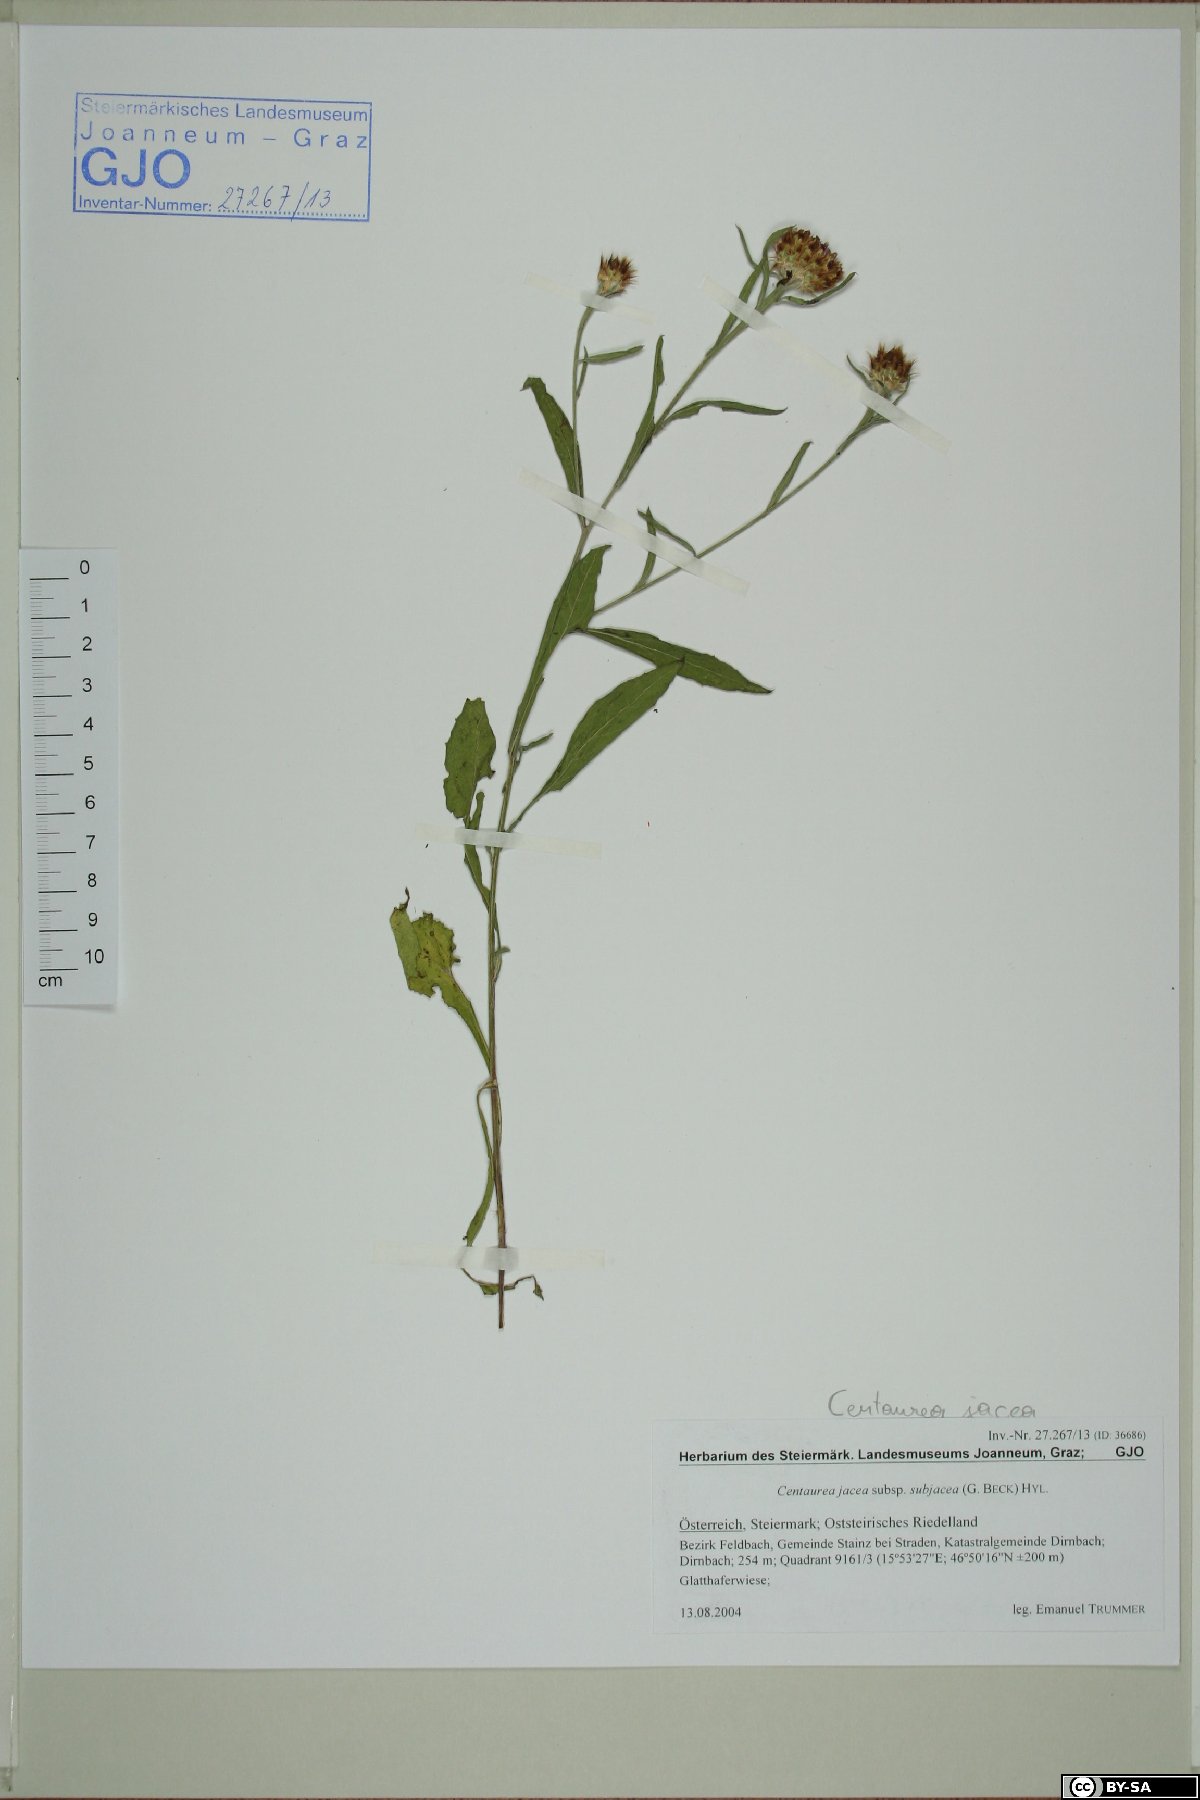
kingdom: Plantae
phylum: Tracheophyta
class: Magnoliopsida
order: Asterales
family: Asteraceae
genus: Centaurea
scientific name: Centaurea preissmannii
